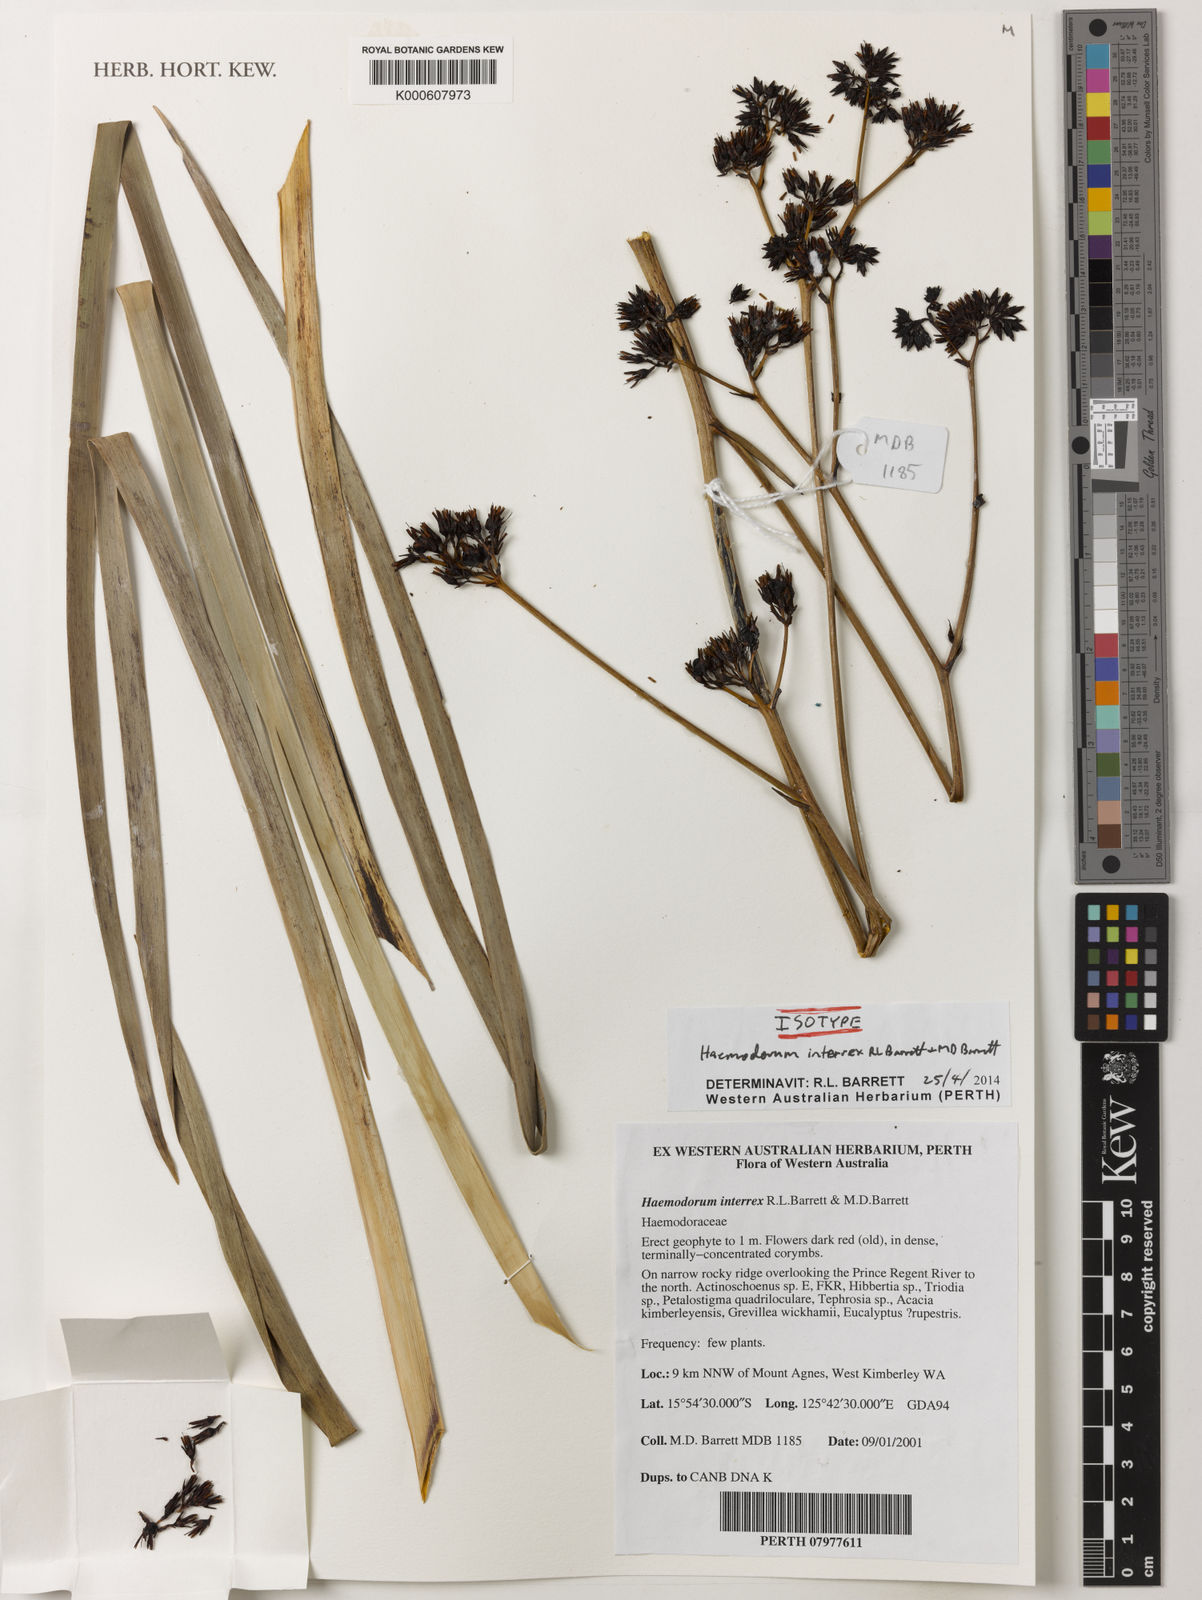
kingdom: Plantae
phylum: Tracheophyta
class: Liliopsida
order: Commelinales
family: Haemodoraceae
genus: Haemodorum
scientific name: Haemodorum interrex
